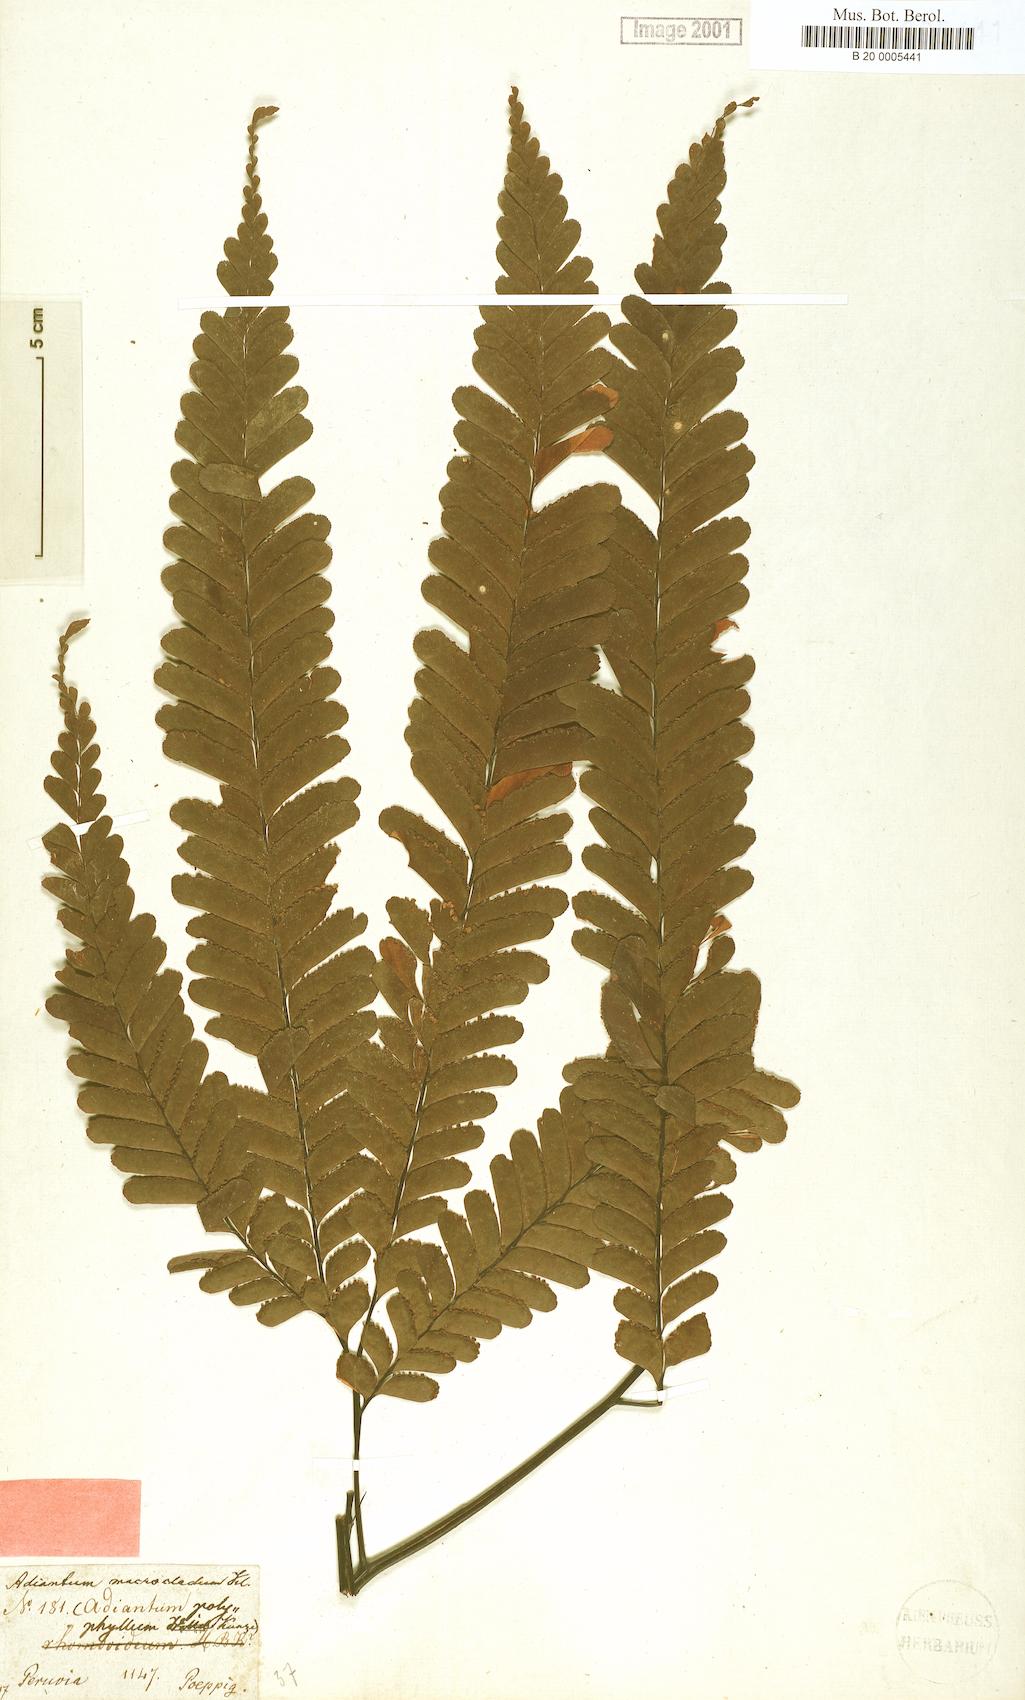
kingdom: Plantae
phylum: Tracheophyta
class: Polypodiopsida
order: Polypodiales
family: Pteridaceae
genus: Adiantum
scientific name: Adiantum macrocladum
